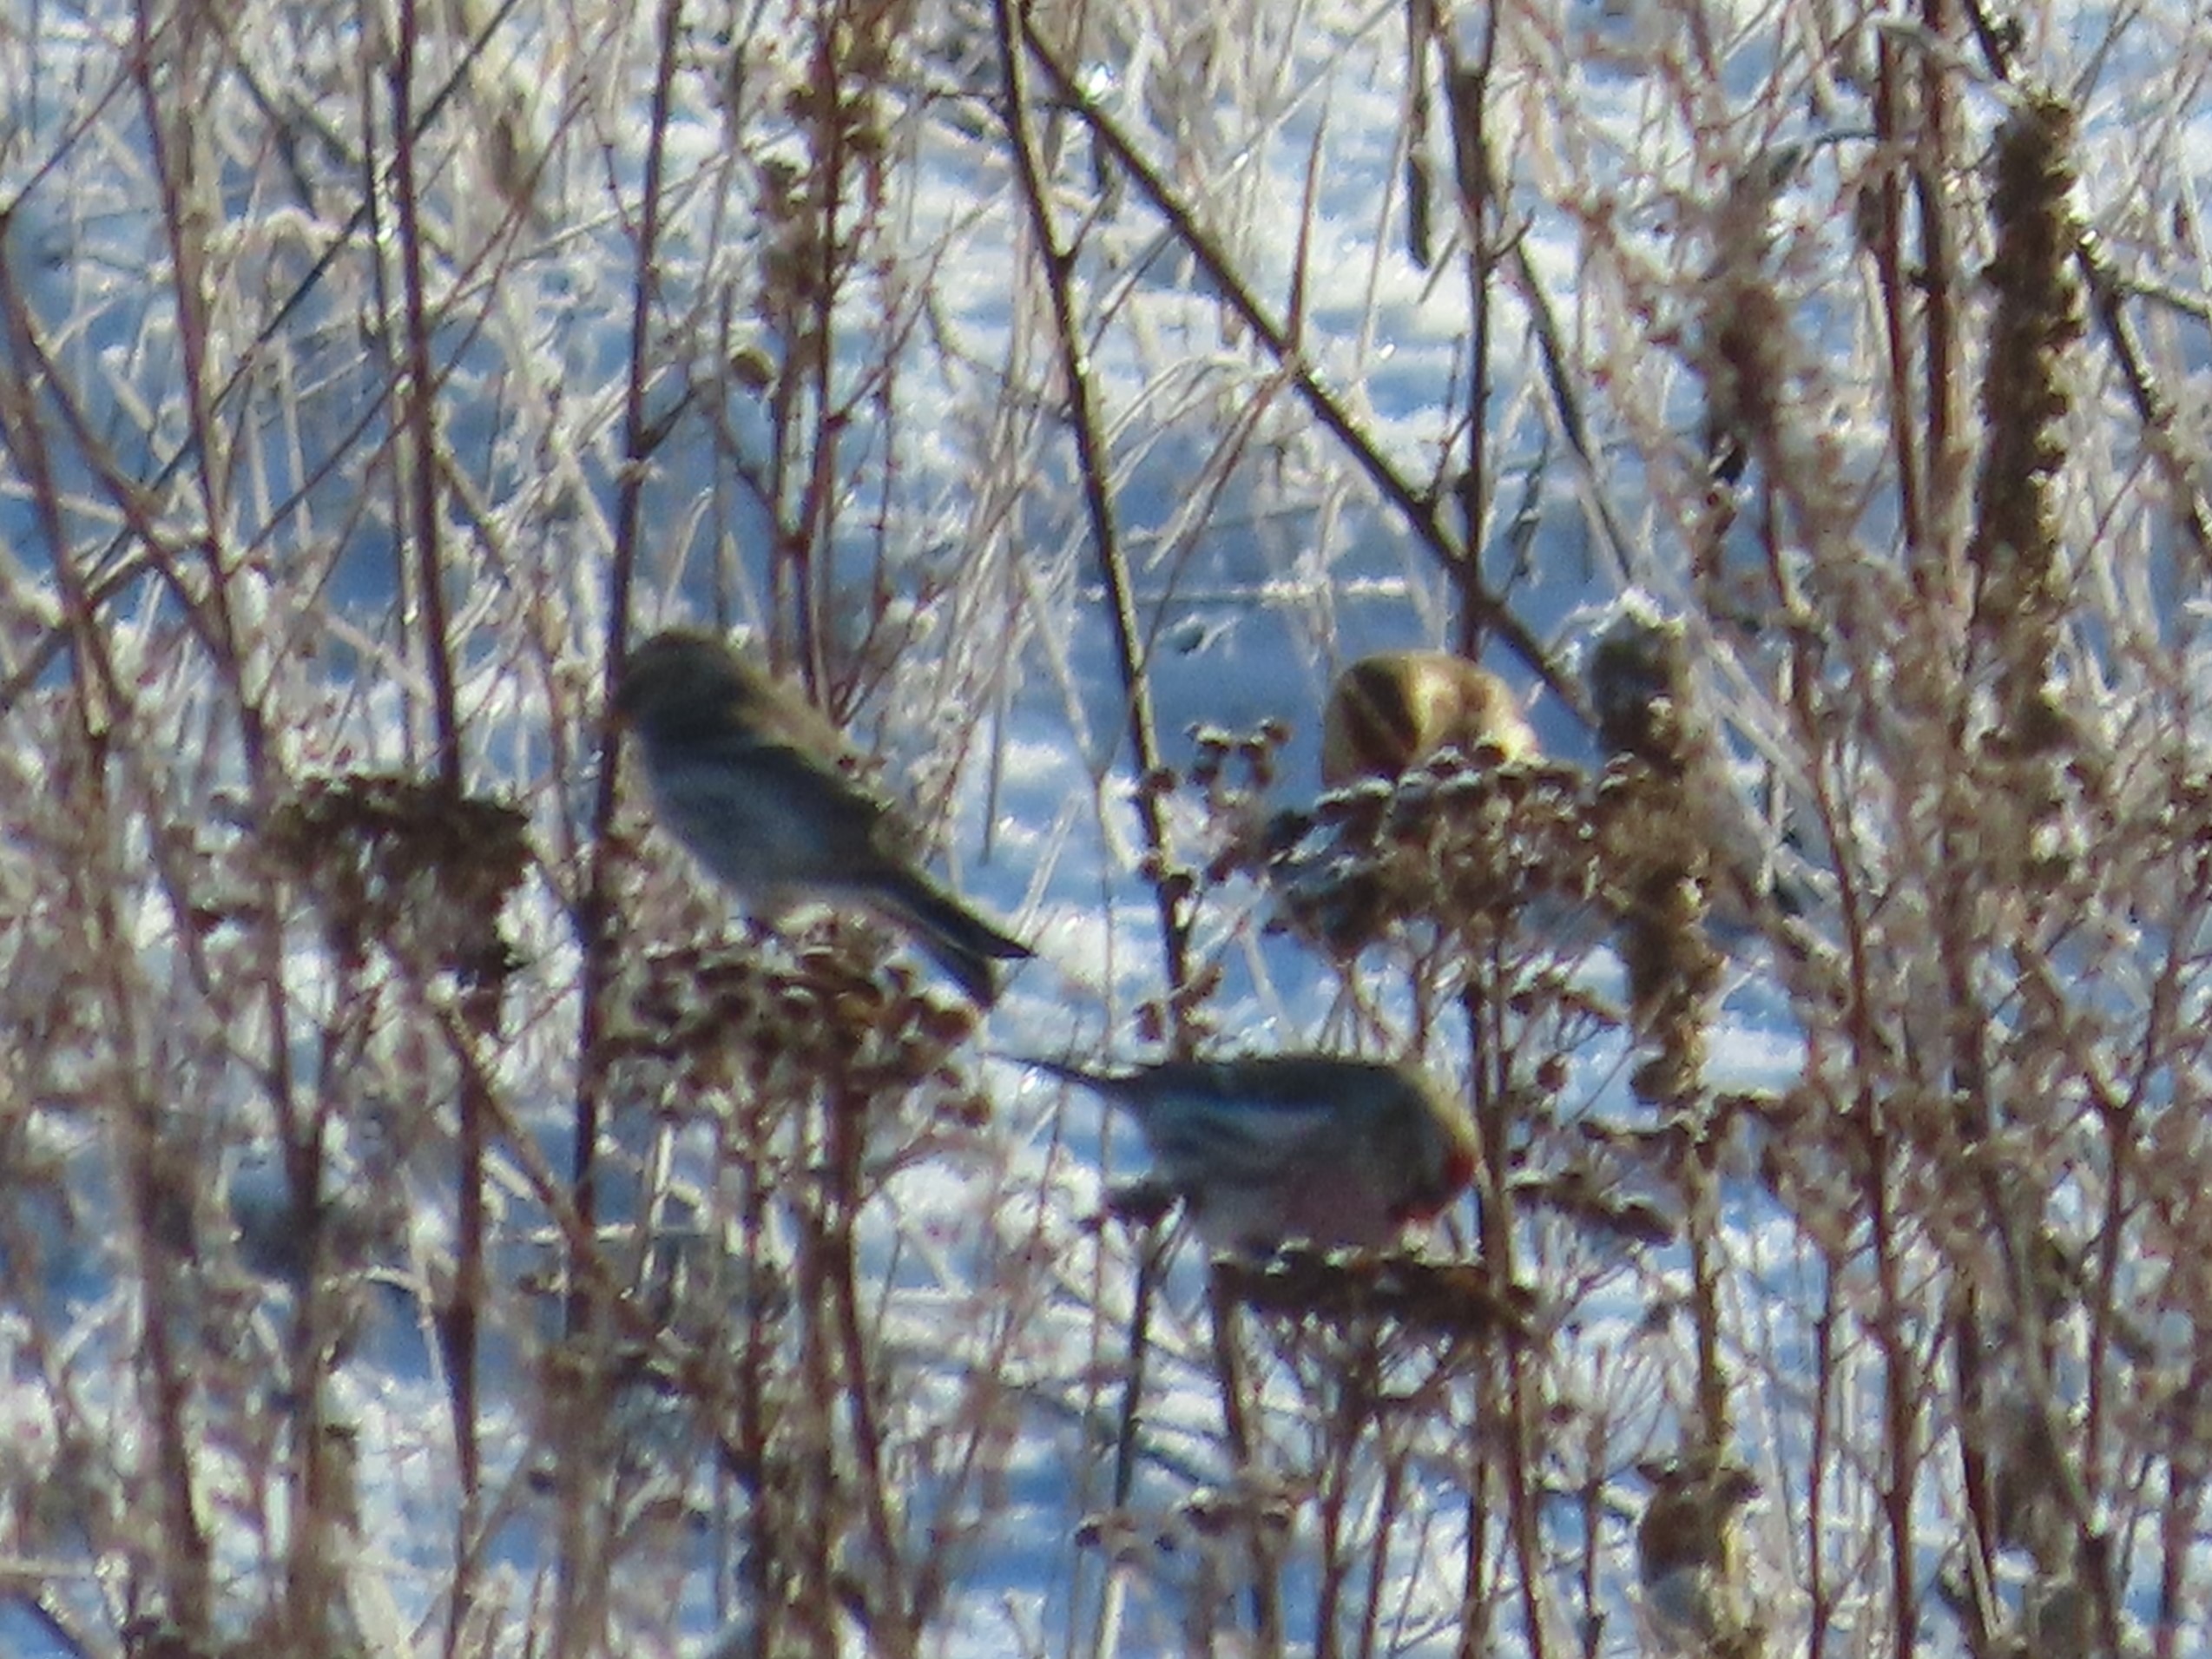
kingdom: Animalia
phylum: Chordata
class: Aves
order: Passeriformes
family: Fringillidae
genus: Acanthis
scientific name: Acanthis flammea
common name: Nordlig gråsisken
